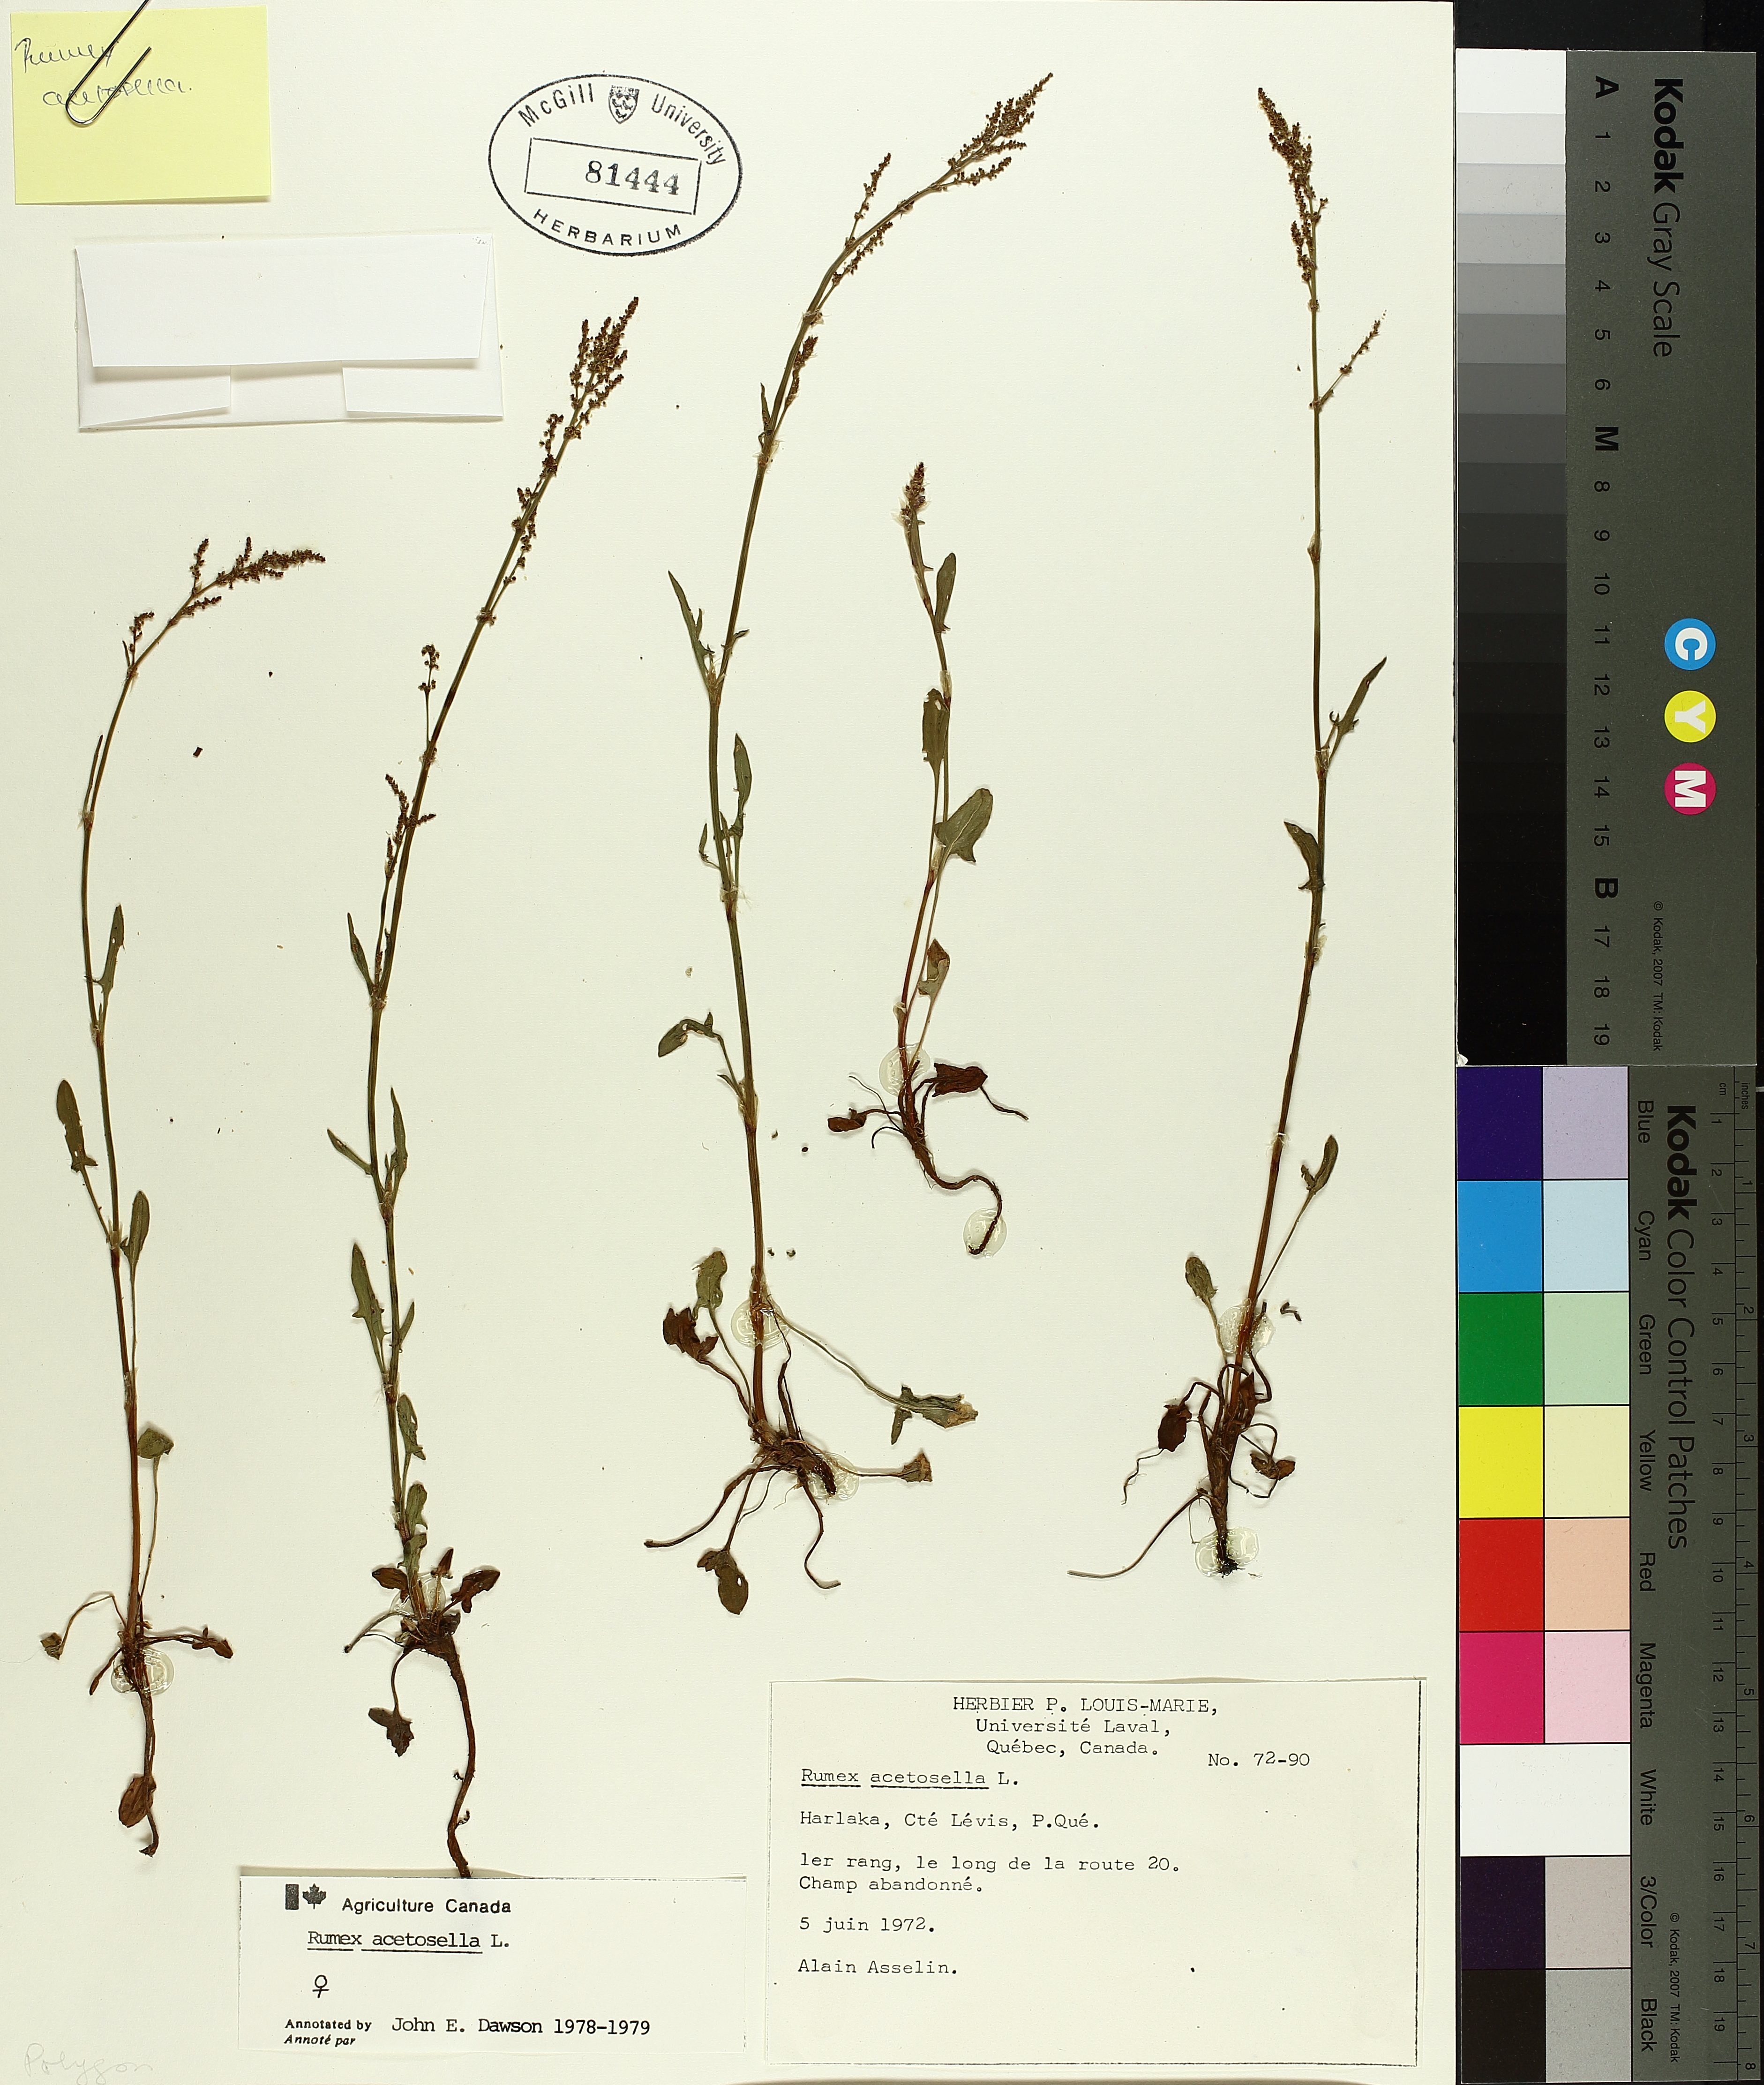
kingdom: Plantae
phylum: Tracheophyta
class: Magnoliopsida
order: Caryophyllales
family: Polygonaceae
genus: Rumex
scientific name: Rumex acetosella
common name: Common sheep sorrel
